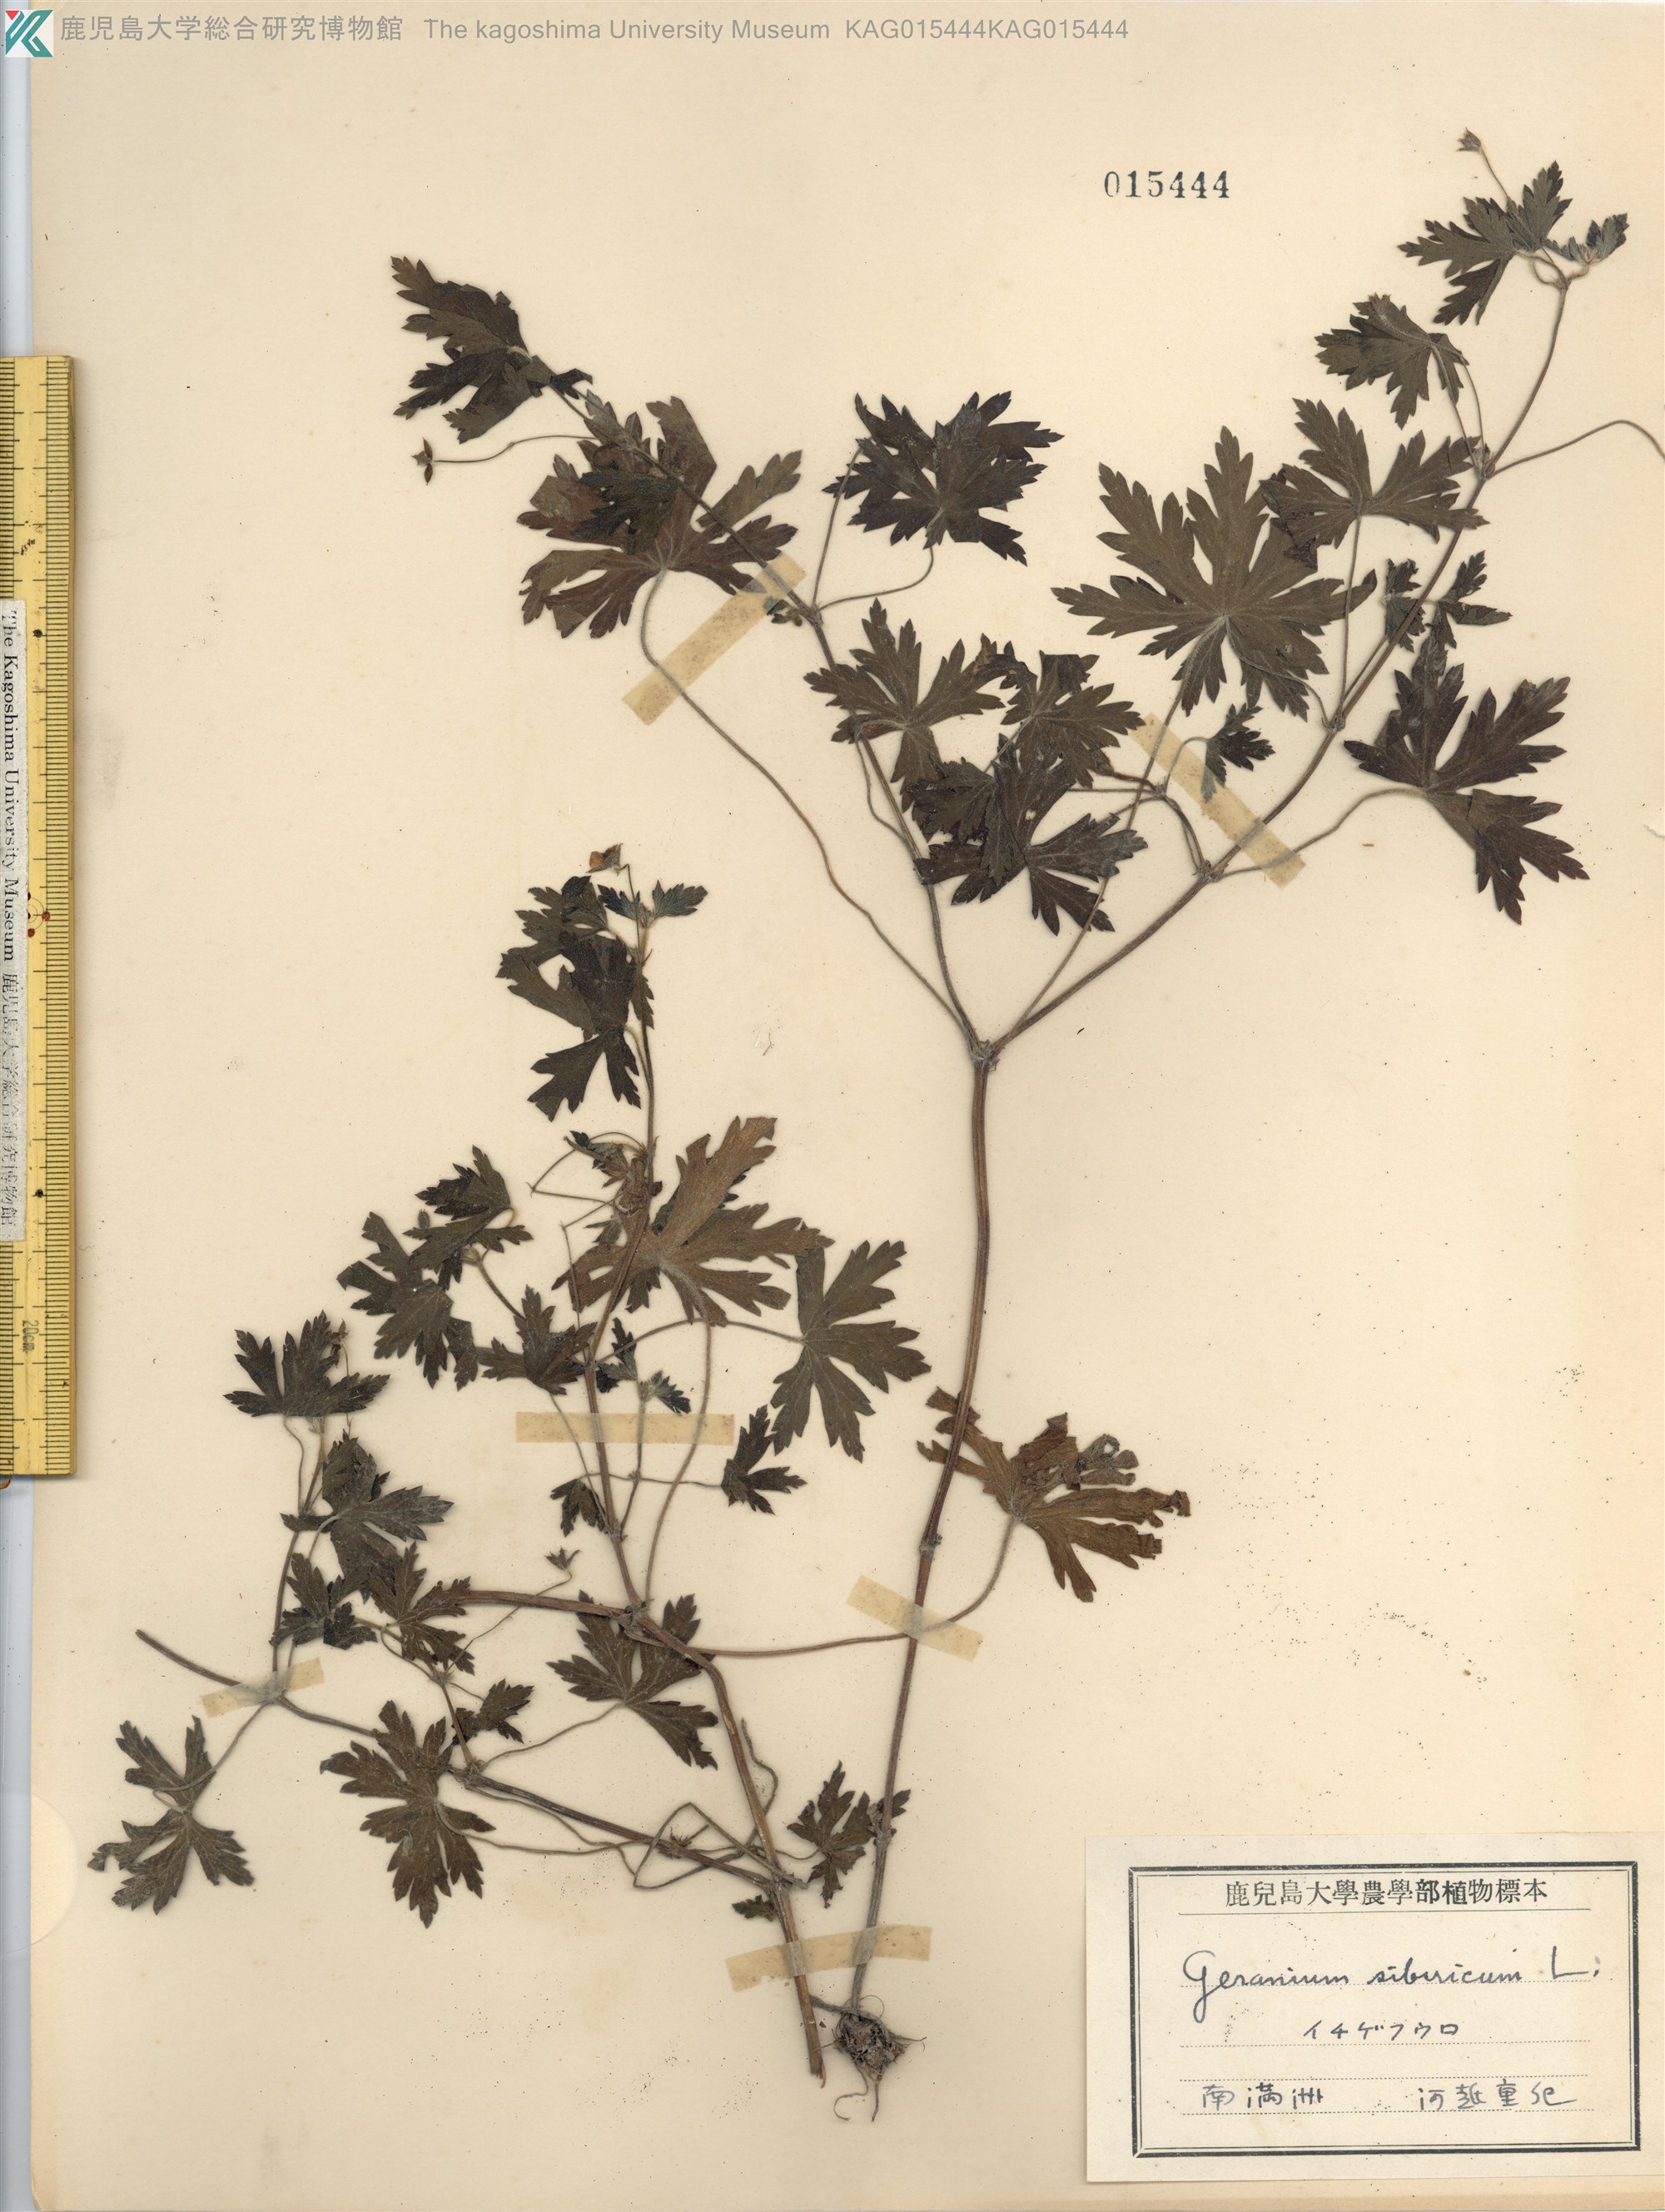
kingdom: Plantae
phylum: Tracheophyta
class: Magnoliopsida
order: Geraniales
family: Geraniaceae
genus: Geranium
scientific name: Geranium sibiricum
